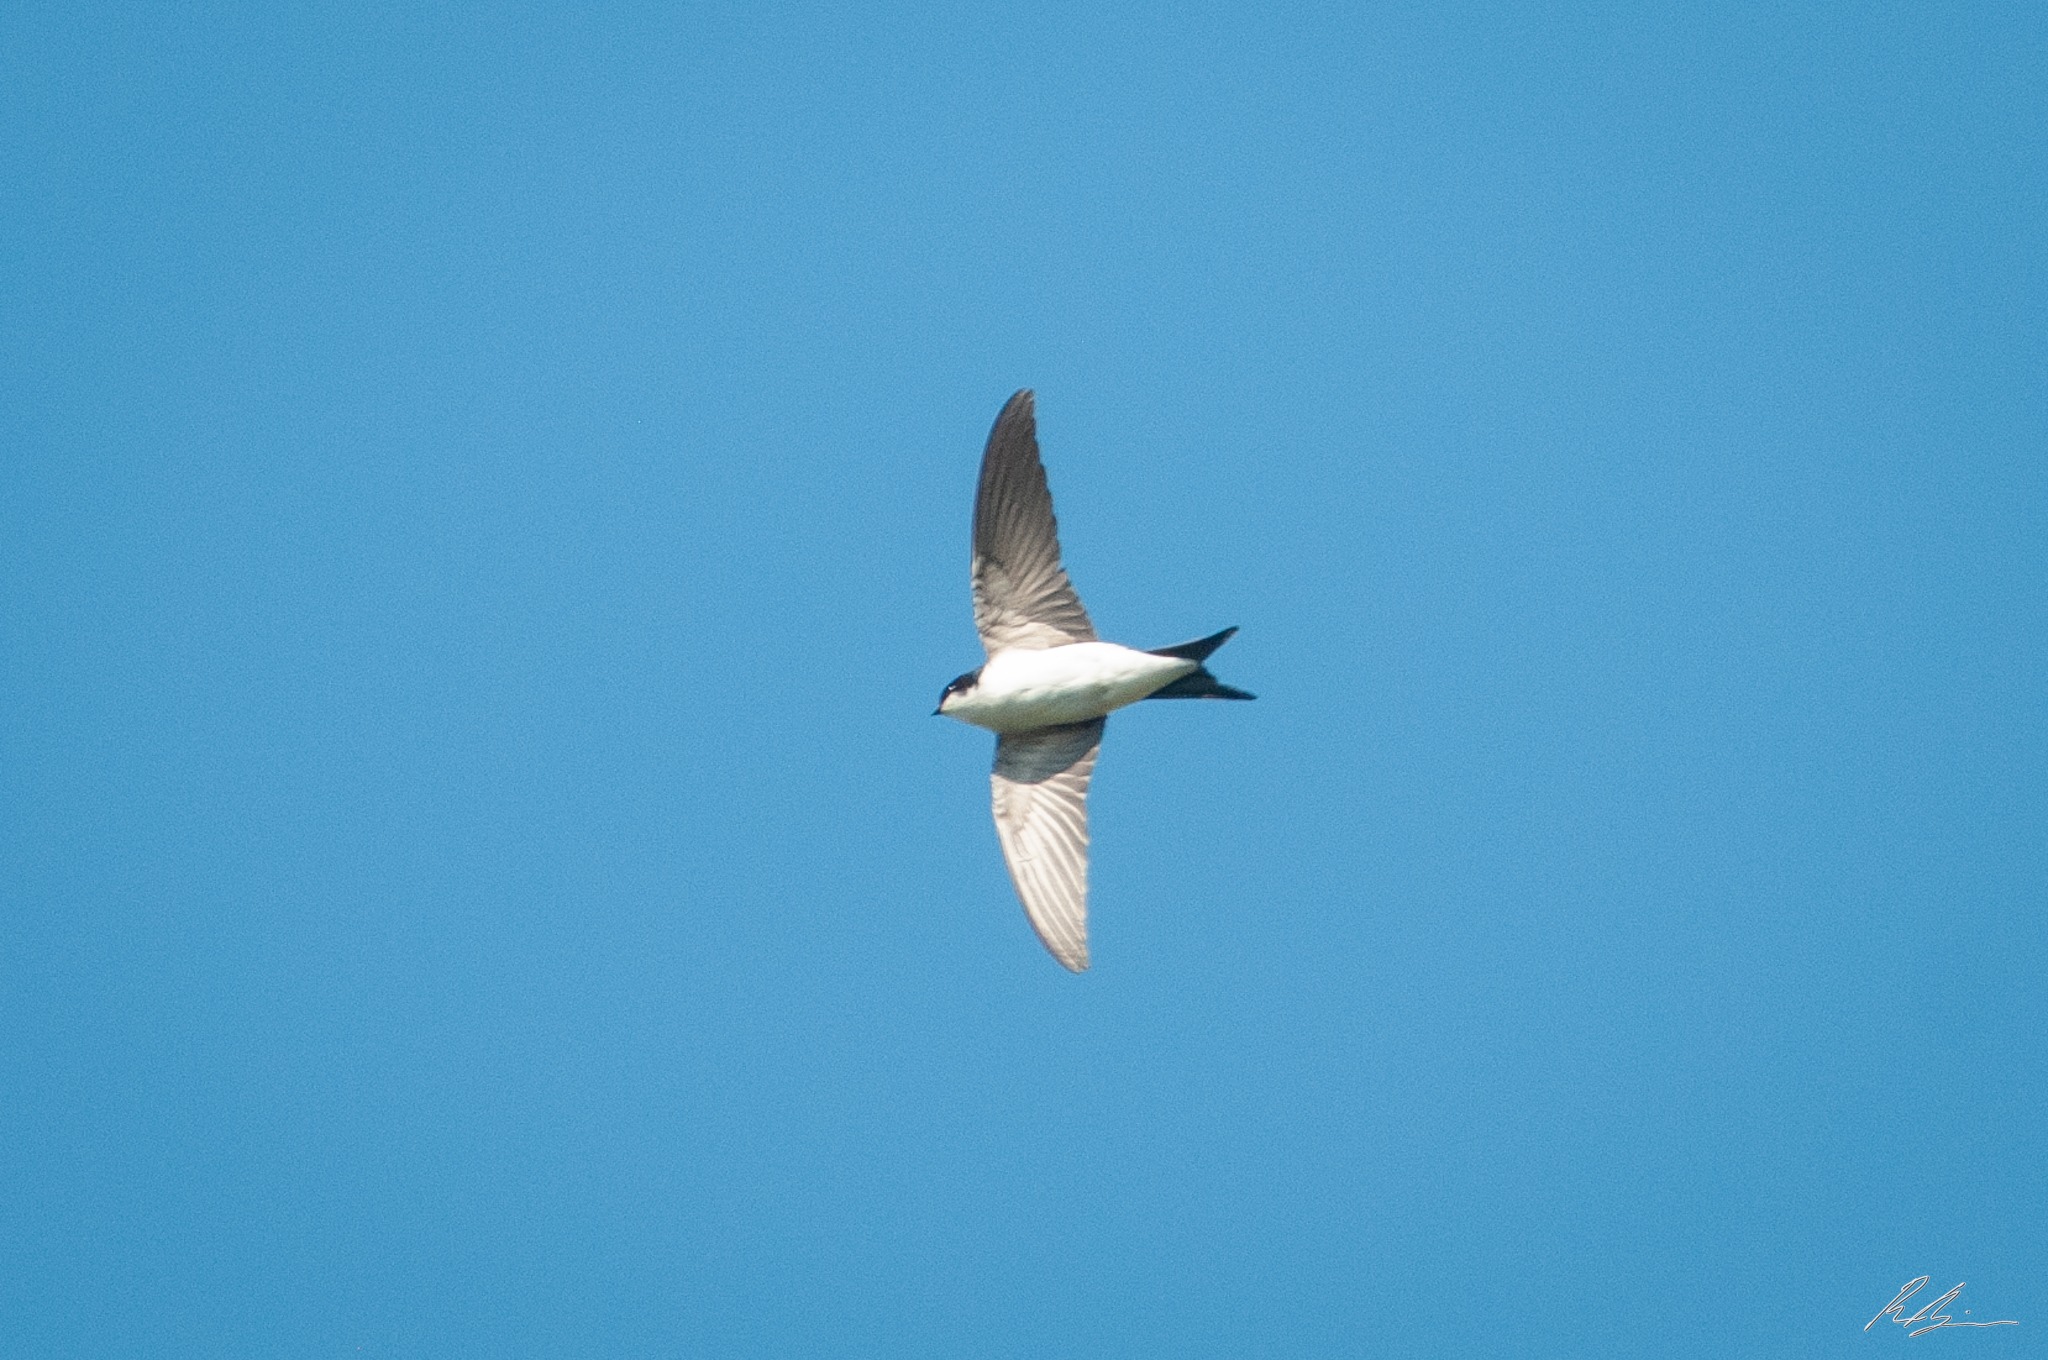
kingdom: Animalia
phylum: Chordata
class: Aves
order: Passeriformes
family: Hirundinidae
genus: Delichon
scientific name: Delichon urbicum
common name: Bysvale
